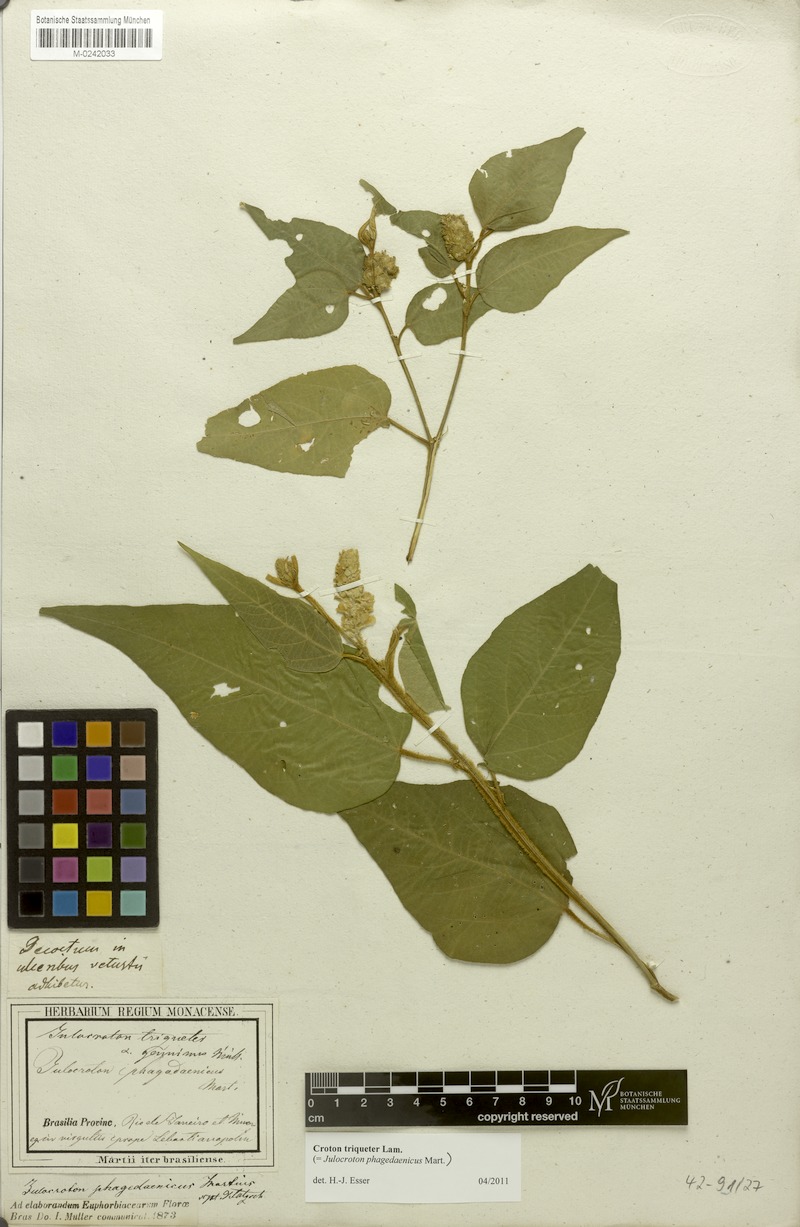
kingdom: Plantae
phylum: Tracheophyta
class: Magnoliopsida
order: Malpighiales
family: Euphorbiaceae
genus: Croton
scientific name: Croton triqueter
